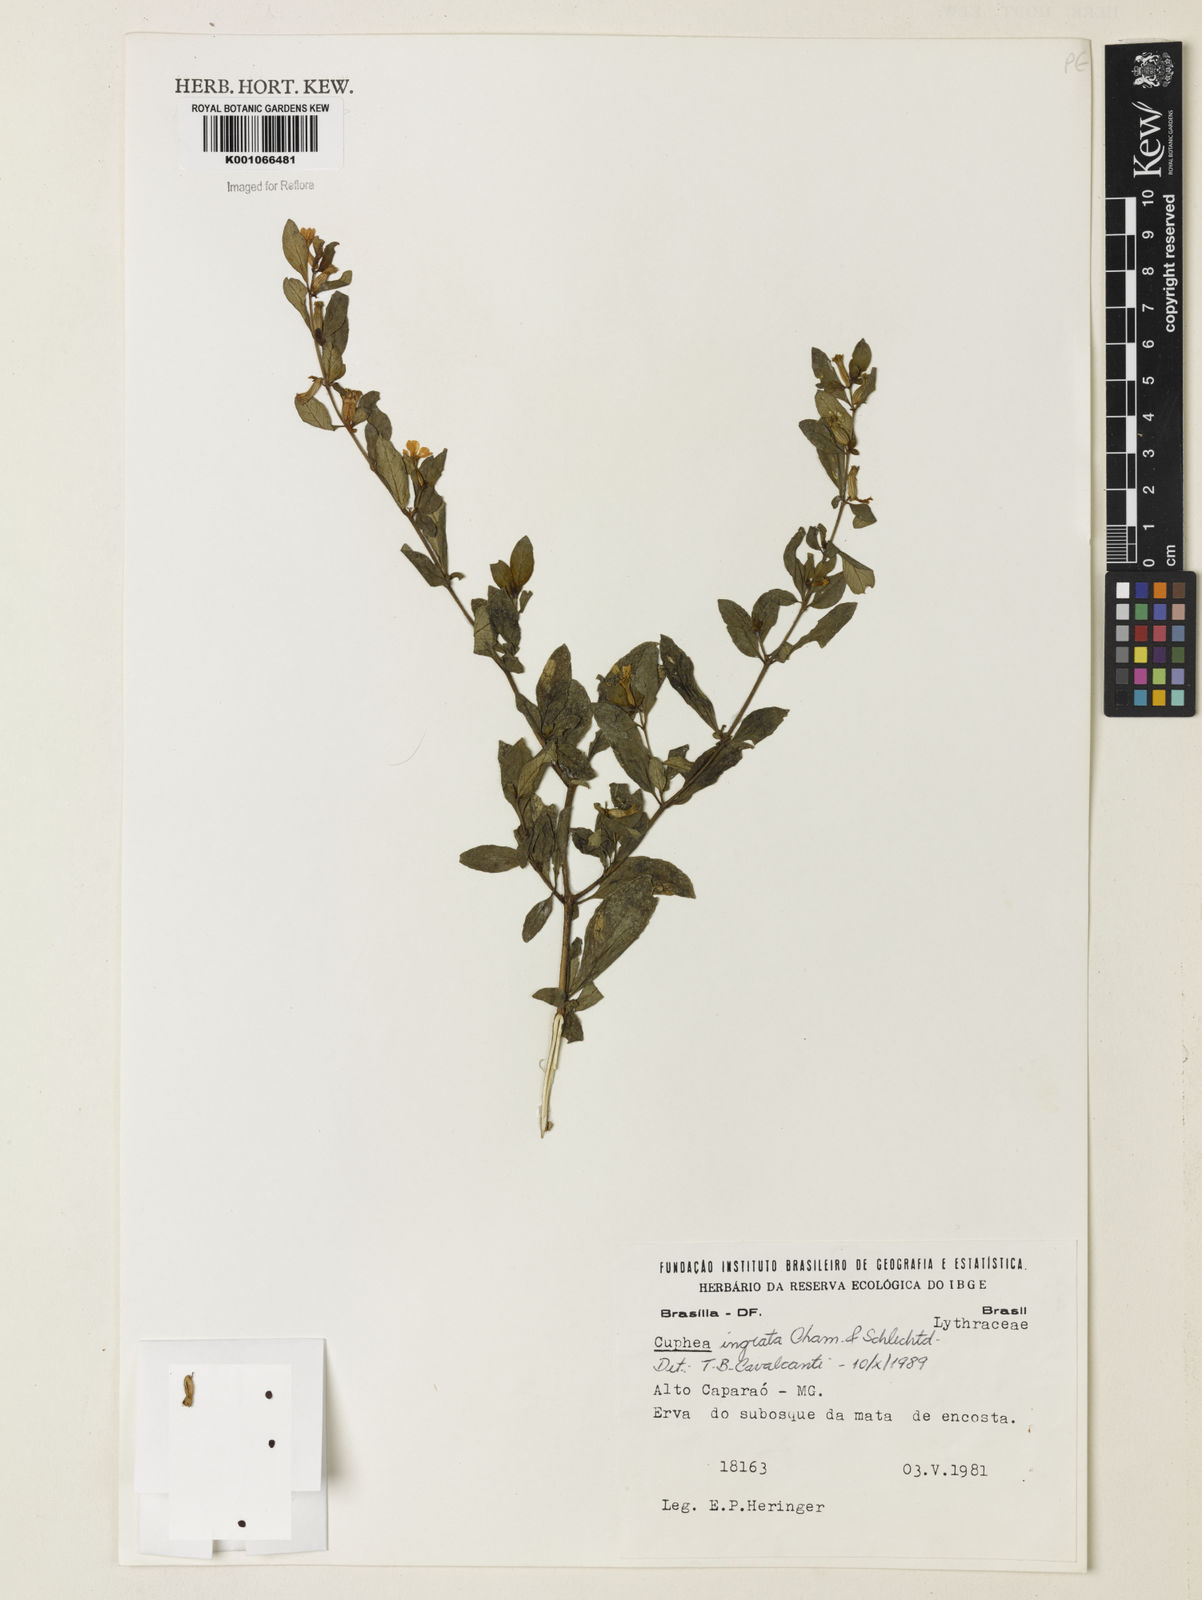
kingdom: Plantae
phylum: Tracheophyta
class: Magnoliopsida
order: Myrtales
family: Lythraceae
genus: Cuphea
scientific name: Cuphea ingrata
